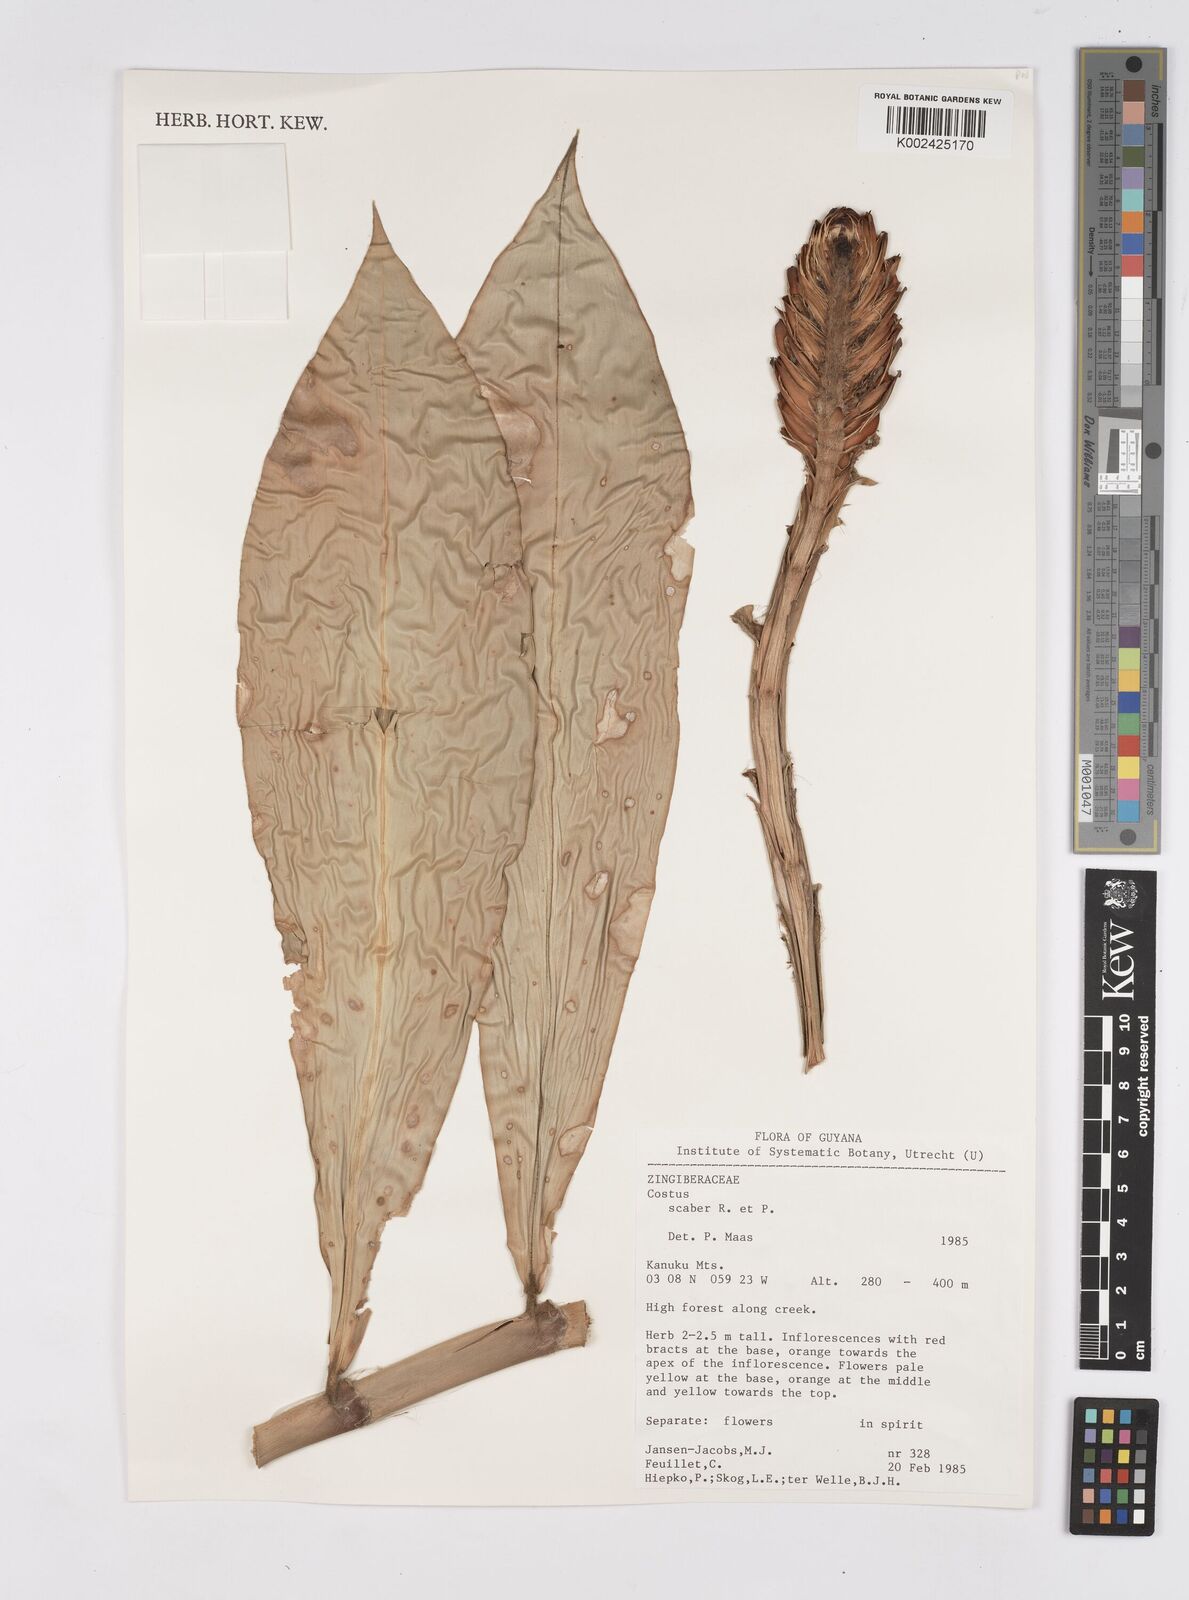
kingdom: Plantae
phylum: Tracheophyta
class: Liliopsida
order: Zingiberales
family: Costaceae
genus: Costus
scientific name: Costus scaber
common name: Spiral head ginger
